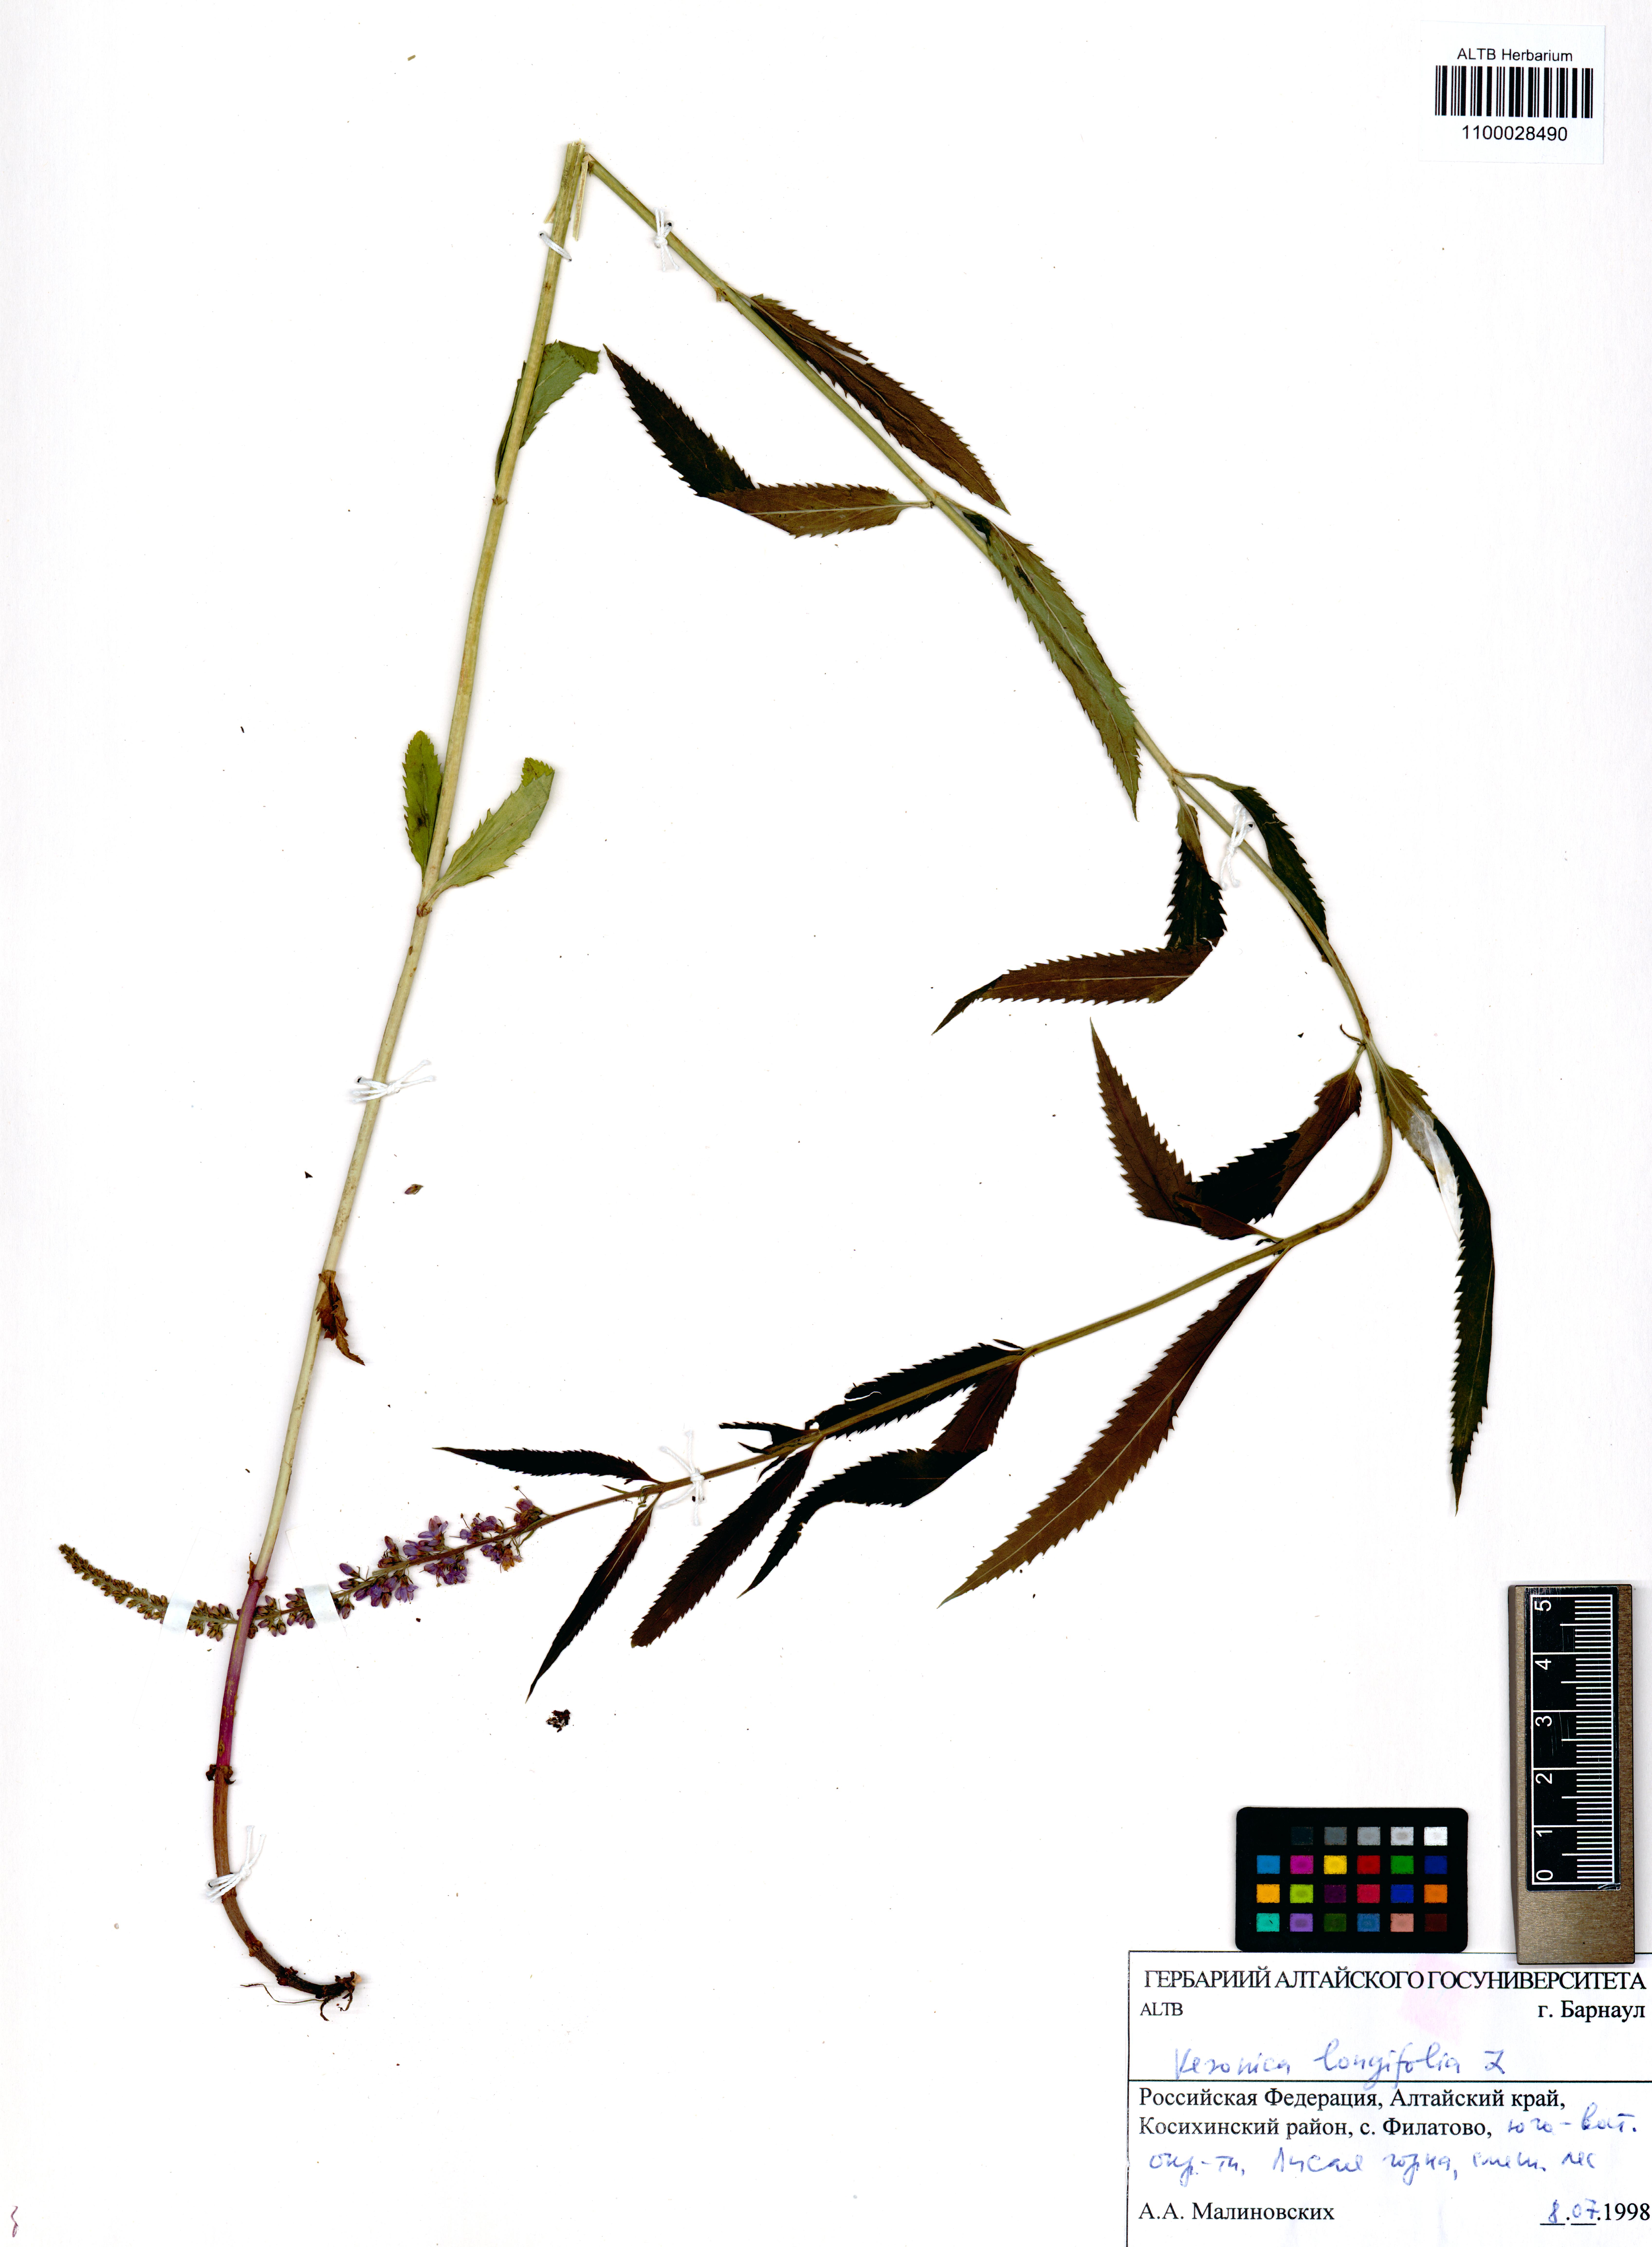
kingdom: Plantae
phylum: Tracheophyta
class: Magnoliopsida
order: Lamiales
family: Plantaginaceae
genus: Veronica
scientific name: Veronica longifolia
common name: Garden speedwell
